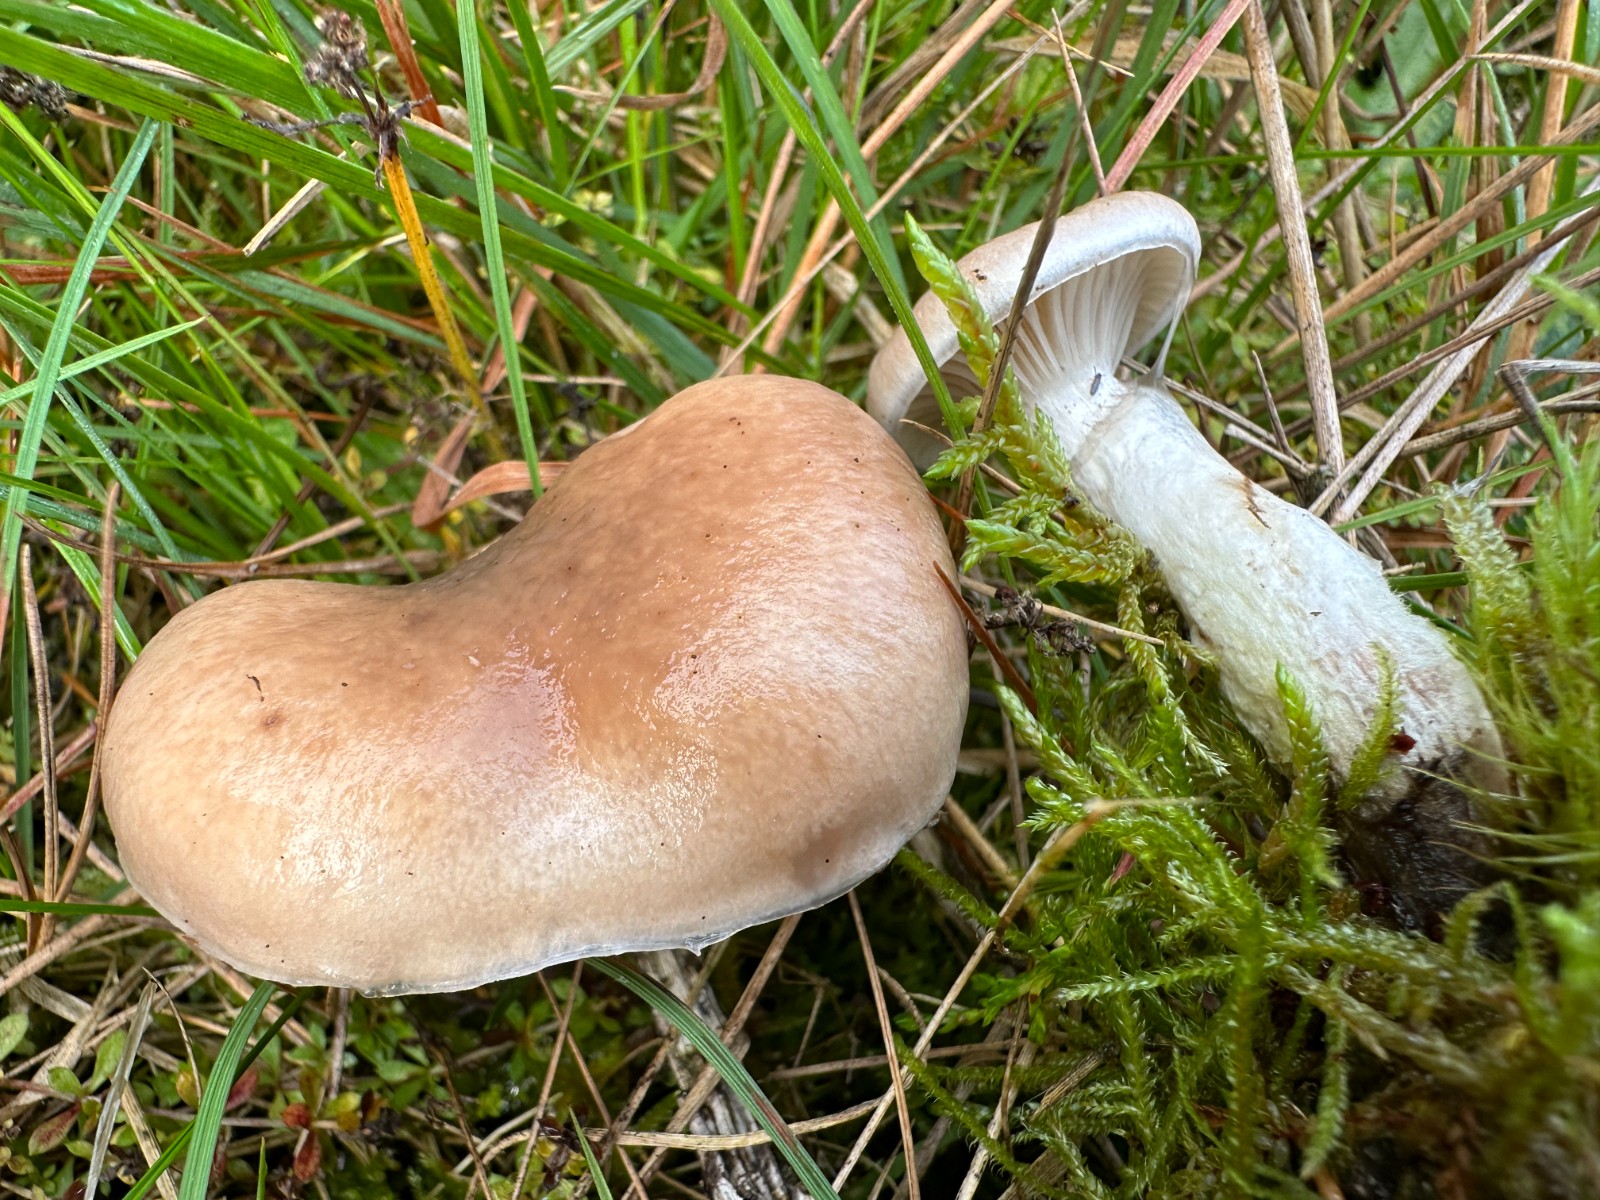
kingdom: Fungi
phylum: Basidiomycota
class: Agaricomycetes
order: Boletales
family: Gomphidiaceae
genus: Gomphidius
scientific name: Gomphidius glutinosus
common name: grå slimslør
